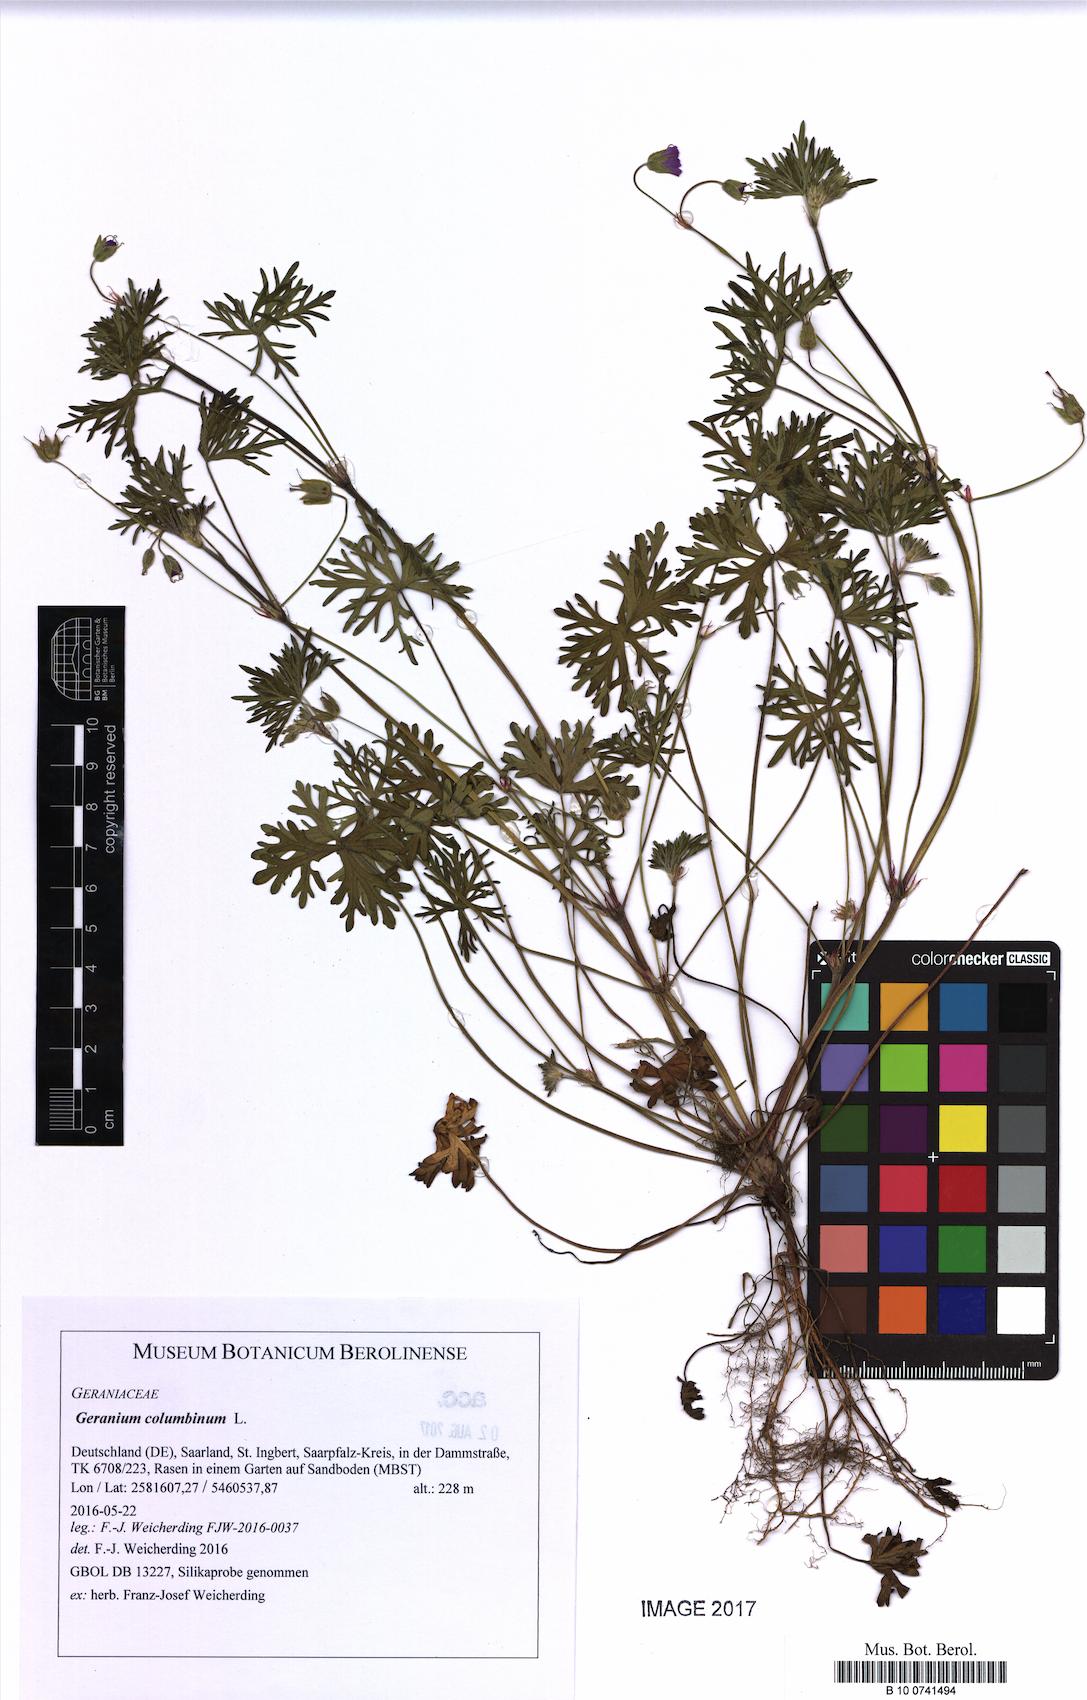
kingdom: Plantae
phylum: Tracheophyta
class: Magnoliopsida
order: Geraniales
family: Geraniaceae
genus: Geranium
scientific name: Geranium columbinum
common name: Long-stalked crane's-bill
